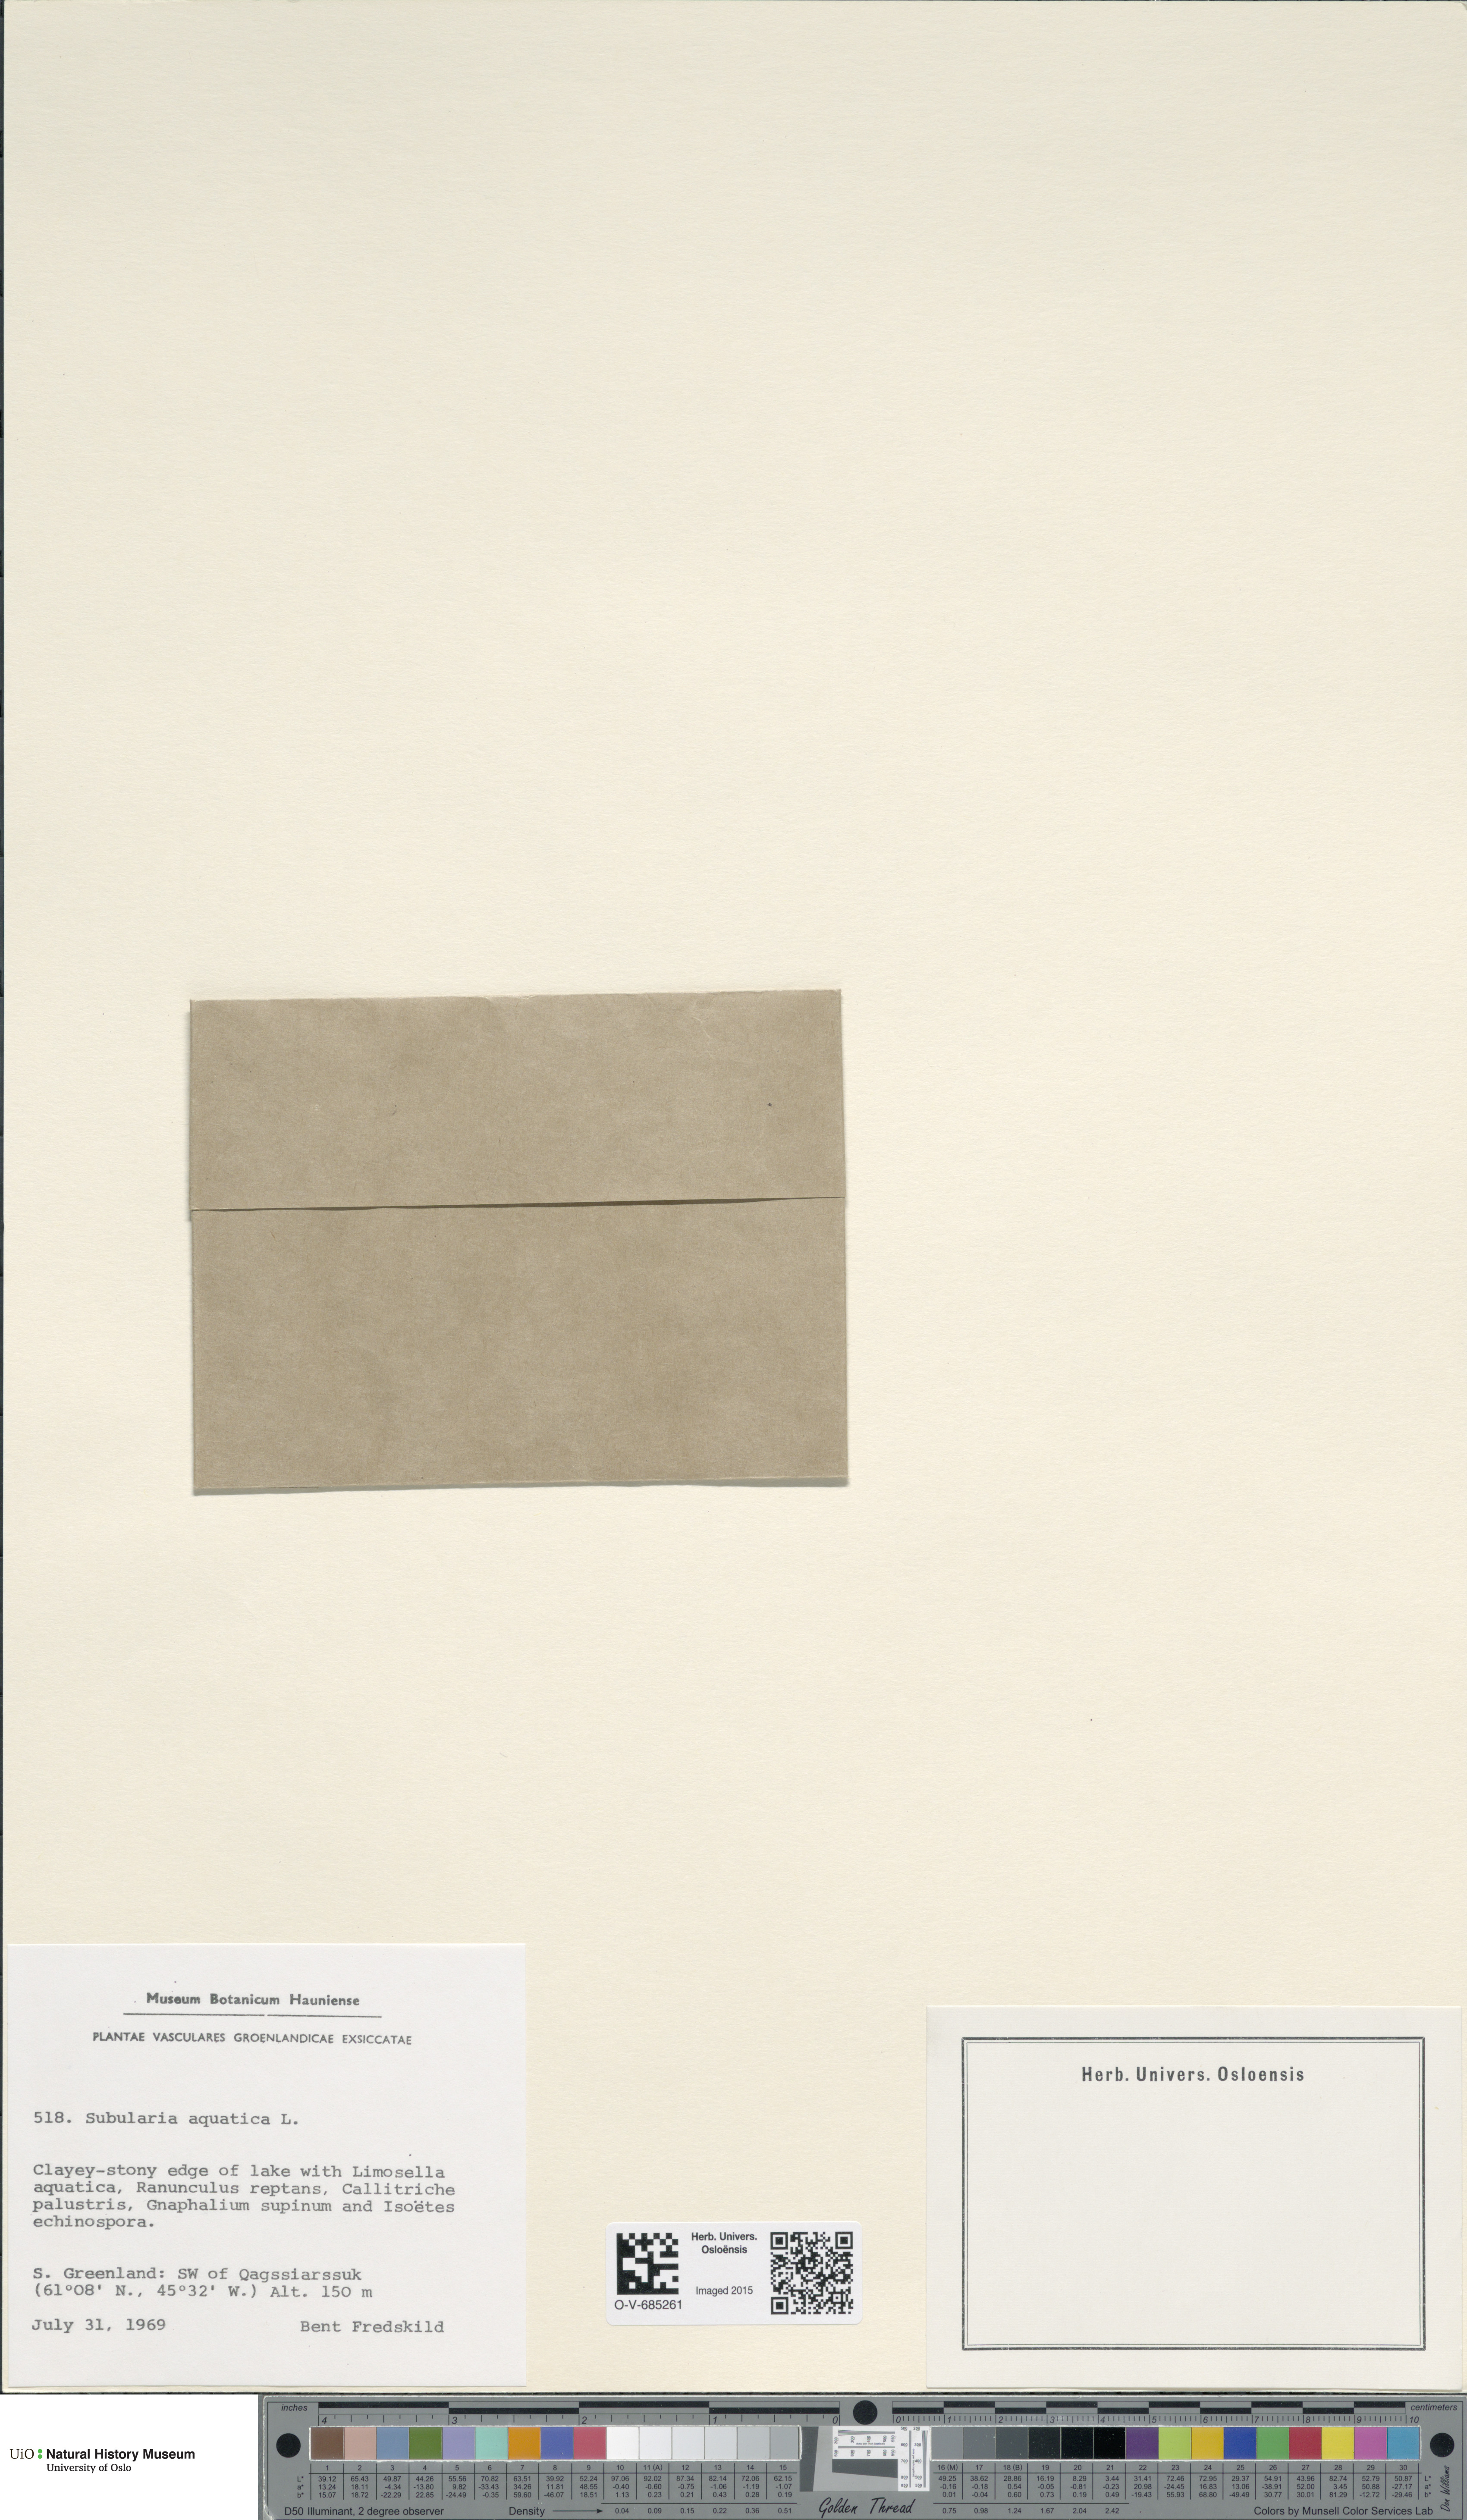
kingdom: Plantae
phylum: Tracheophyta
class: Magnoliopsida
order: Brassicales
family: Brassicaceae
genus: Subularia
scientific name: Subularia aquatica
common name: Awlwort
